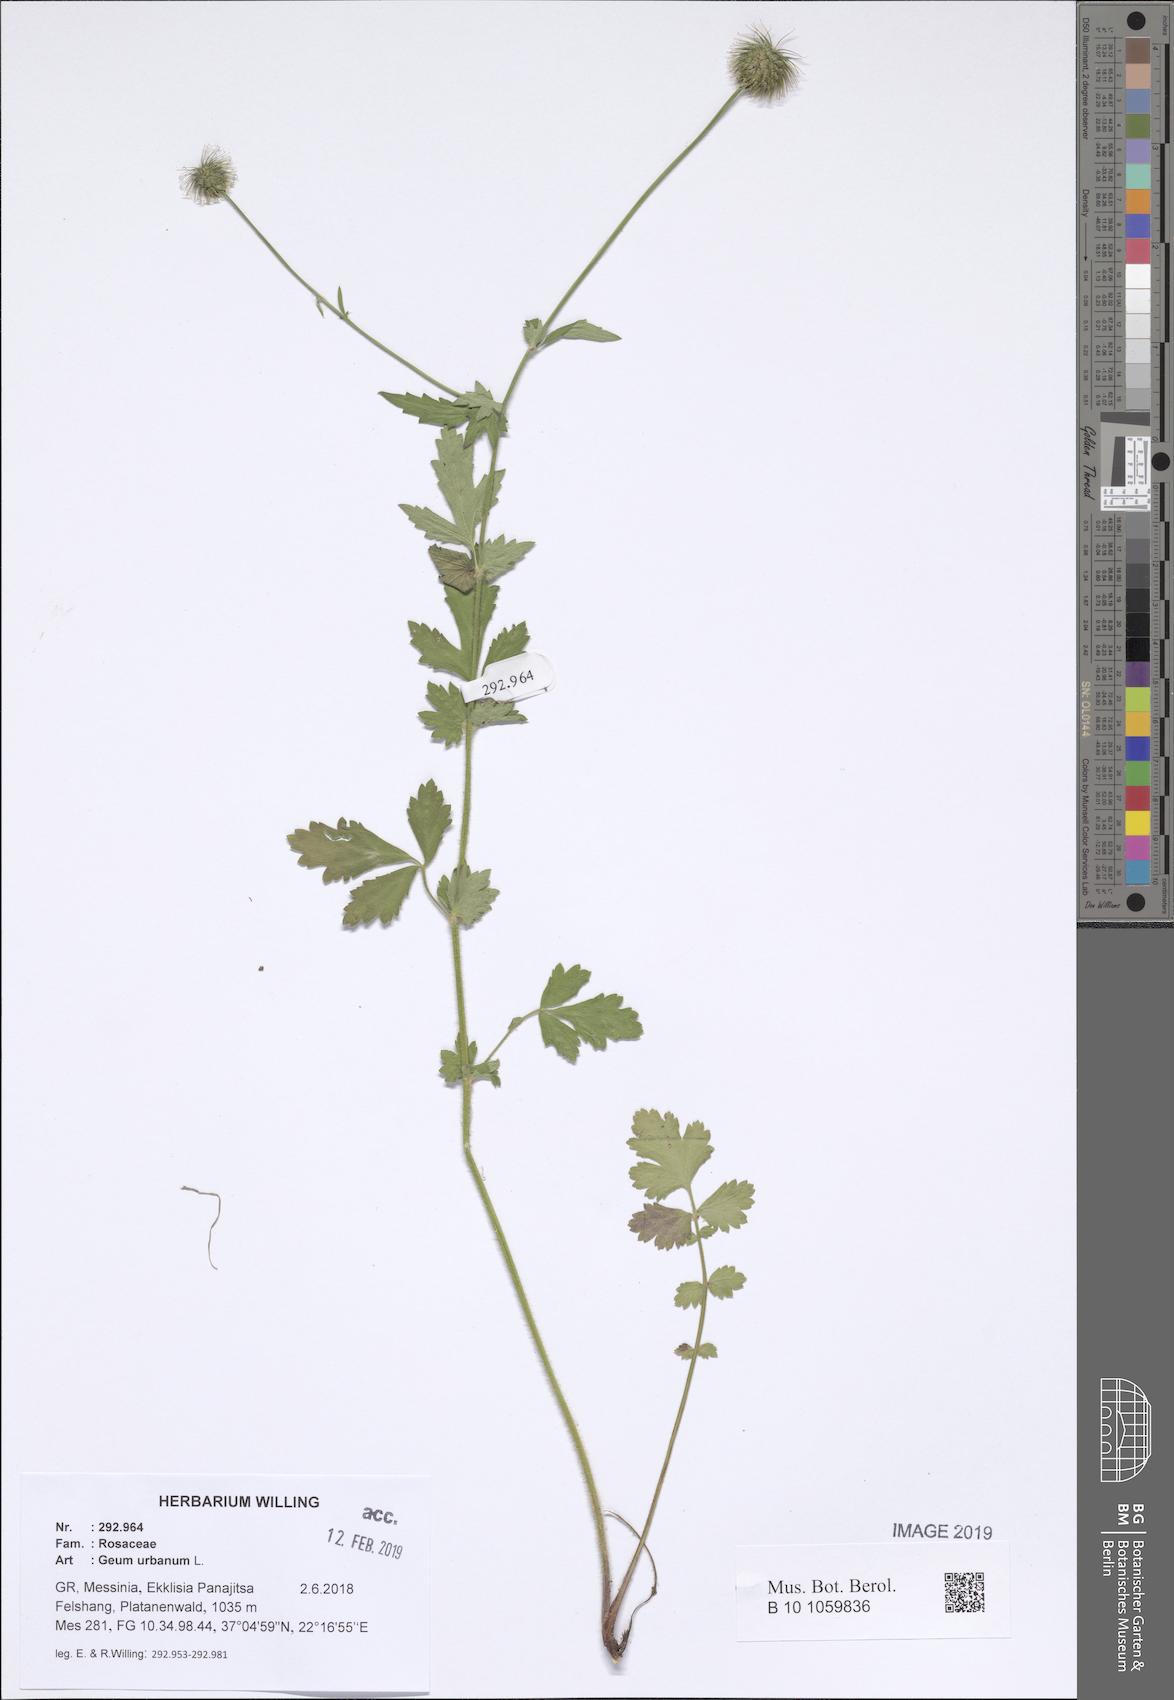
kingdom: Plantae
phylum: Tracheophyta
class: Magnoliopsida
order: Rosales
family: Rosaceae
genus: Geum
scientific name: Geum urbanum
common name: Wood avens
